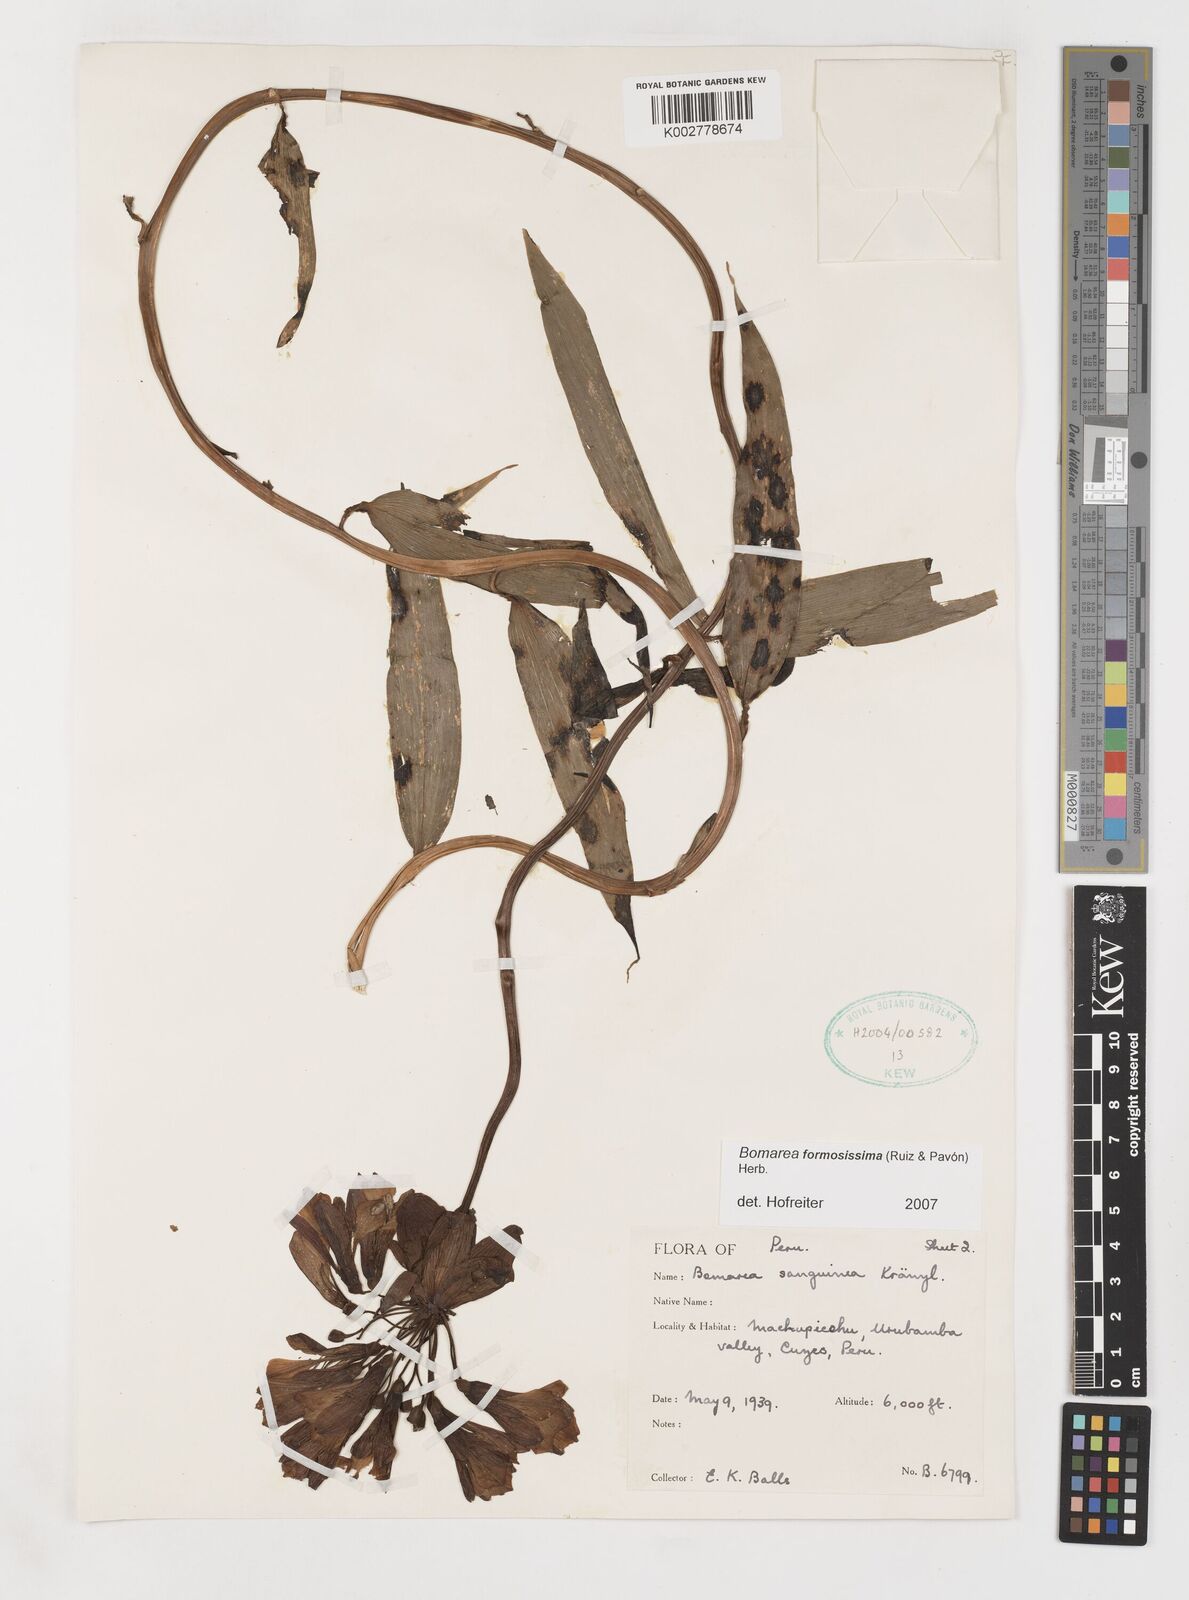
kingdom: Plantae
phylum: Tracheophyta
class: Liliopsida
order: Liliales
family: Alstroemeriaceae
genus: Bomarea
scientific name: Bomarea formosissima
